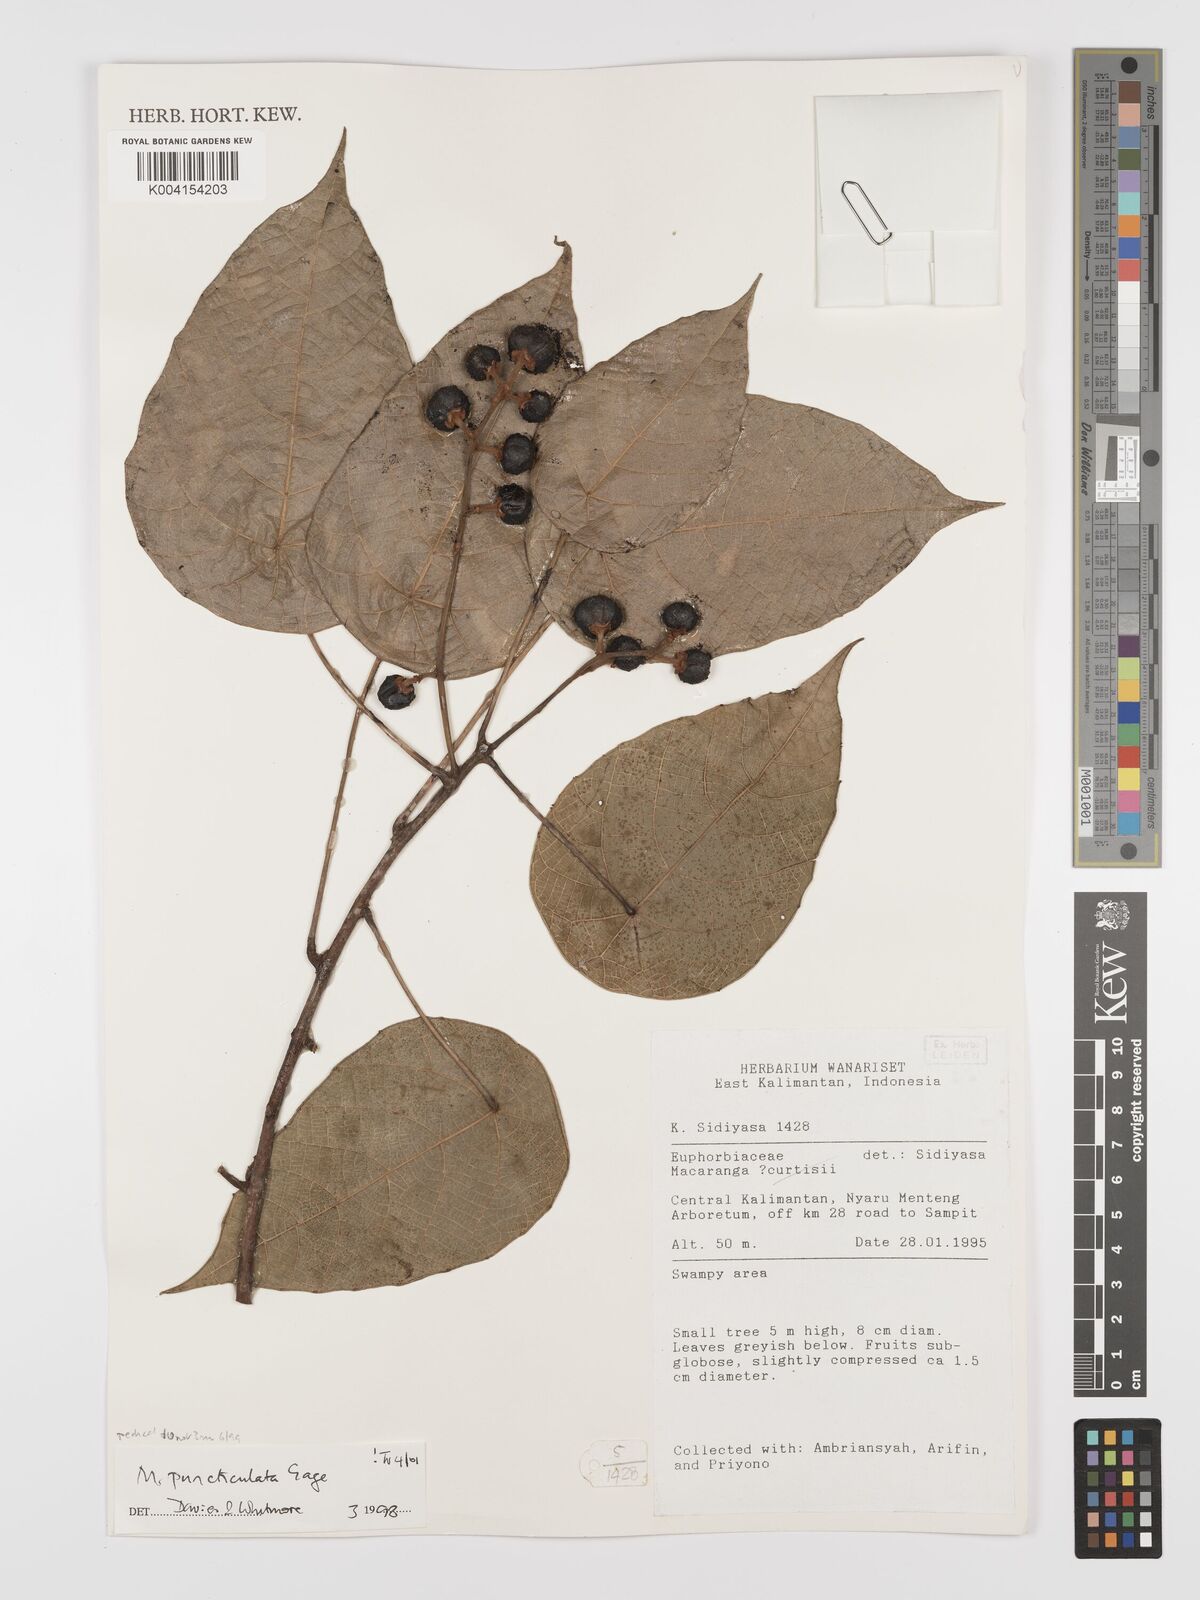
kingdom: Plantae
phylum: Tracheophyta
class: Magnoliopsida
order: Malpighiales
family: Euphorbiaceae
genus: Macaranga
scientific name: Macaranga puncticulata
